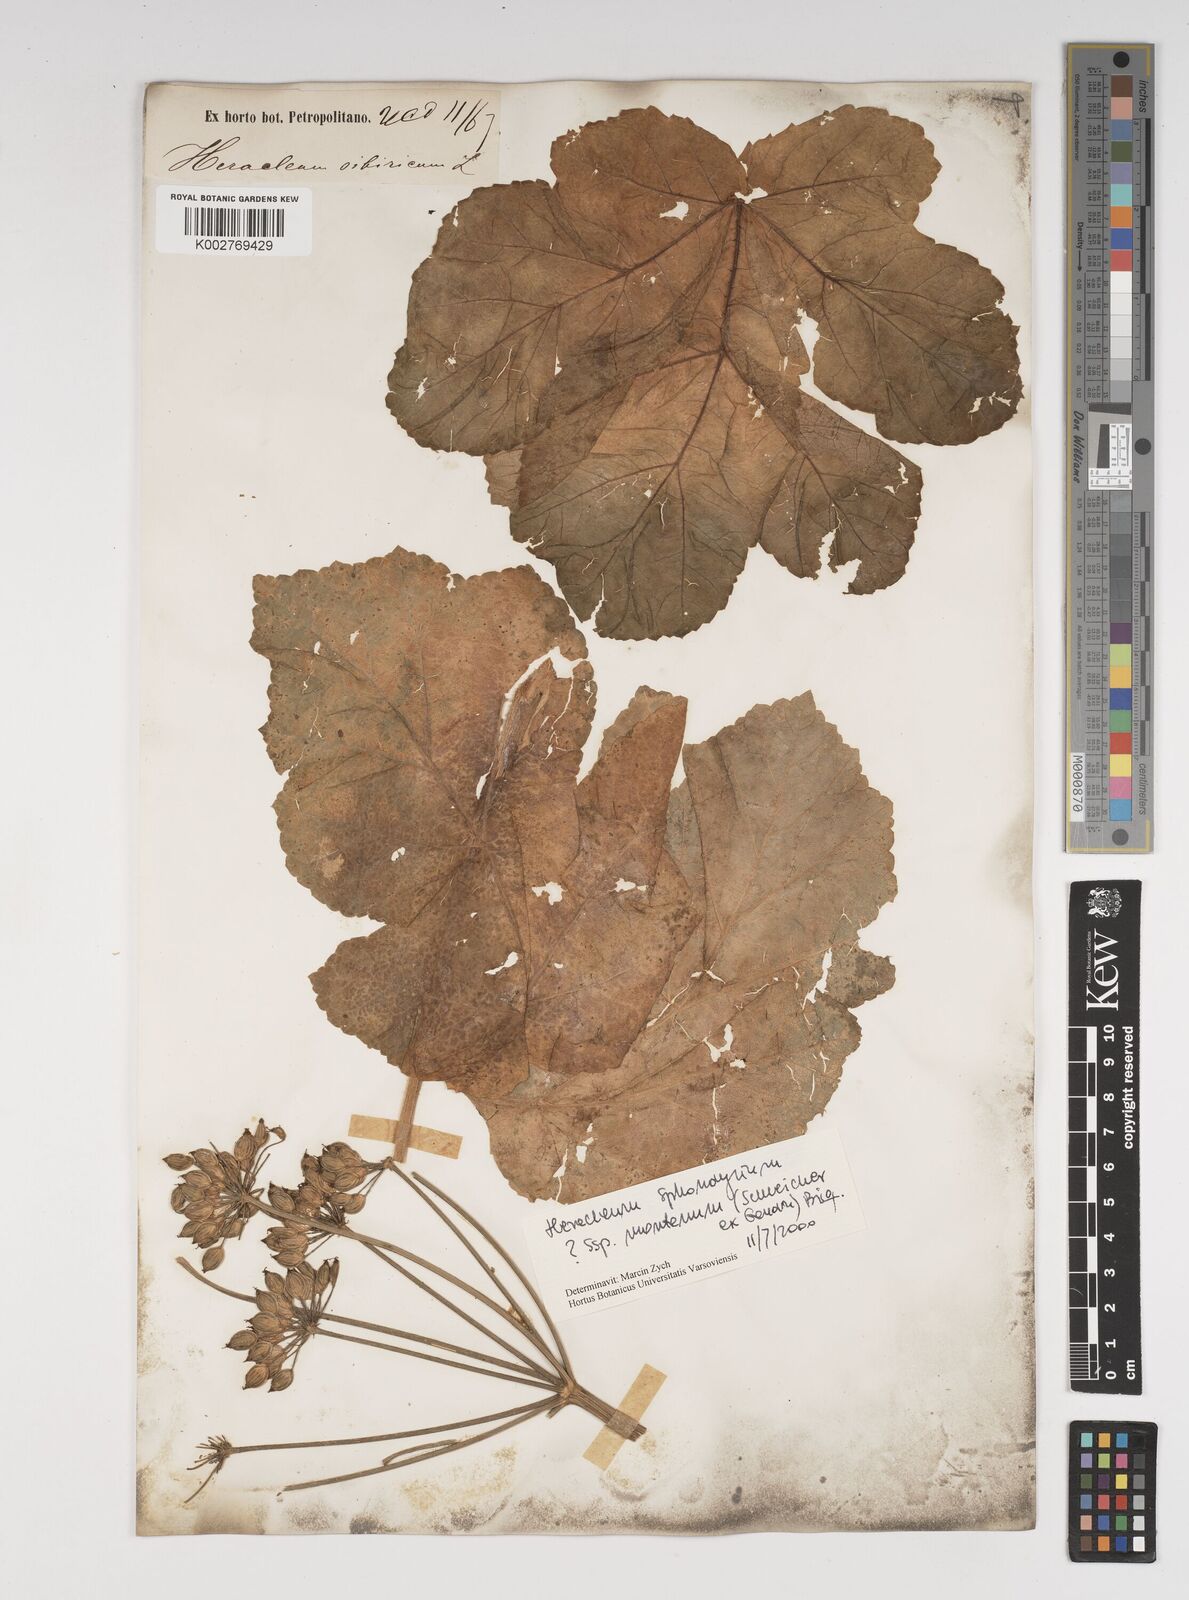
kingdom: Plantae
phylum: Tracheophyta
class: Magnoliopsida
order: Apiales
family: Apiaceae
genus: Heracleum
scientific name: Heracleum sphondylium
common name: Hogweed
